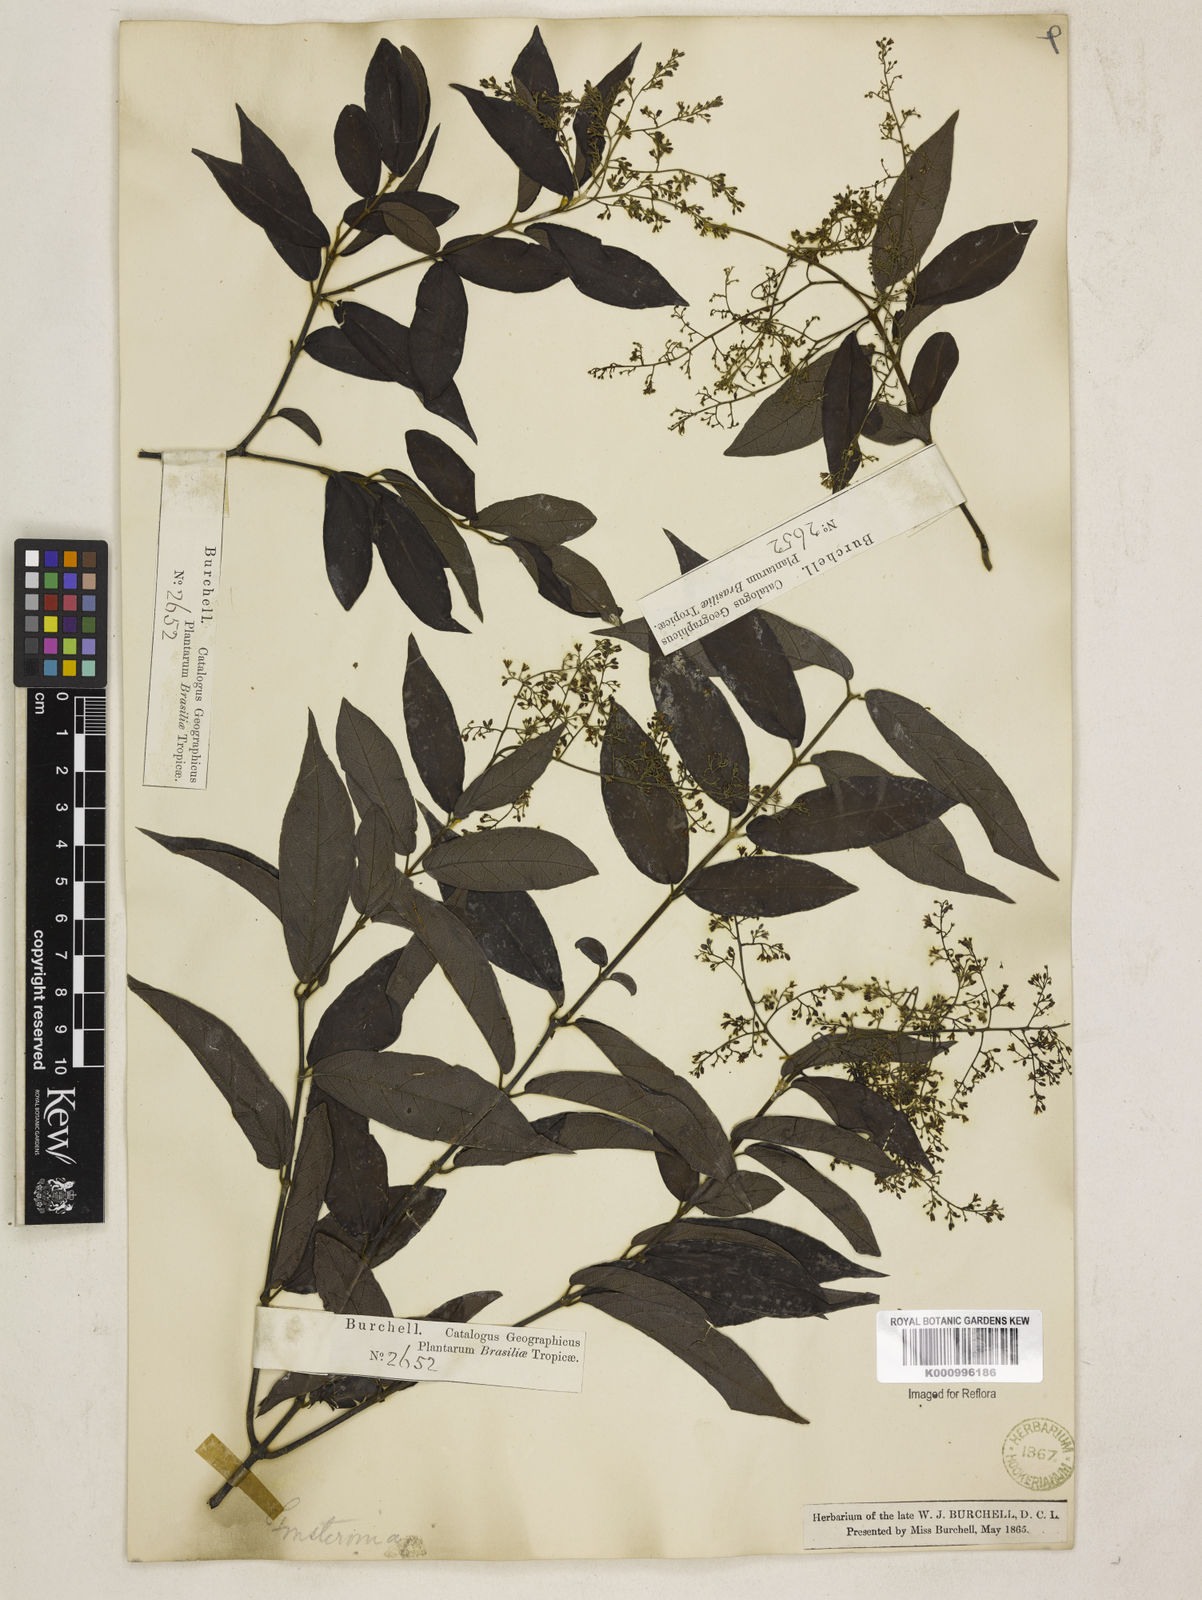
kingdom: Plantae
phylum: Tracheophyta
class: Magnoliopsida
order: Gentianales
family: Apocynaceae
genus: Forsteronia
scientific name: Forsteronia
